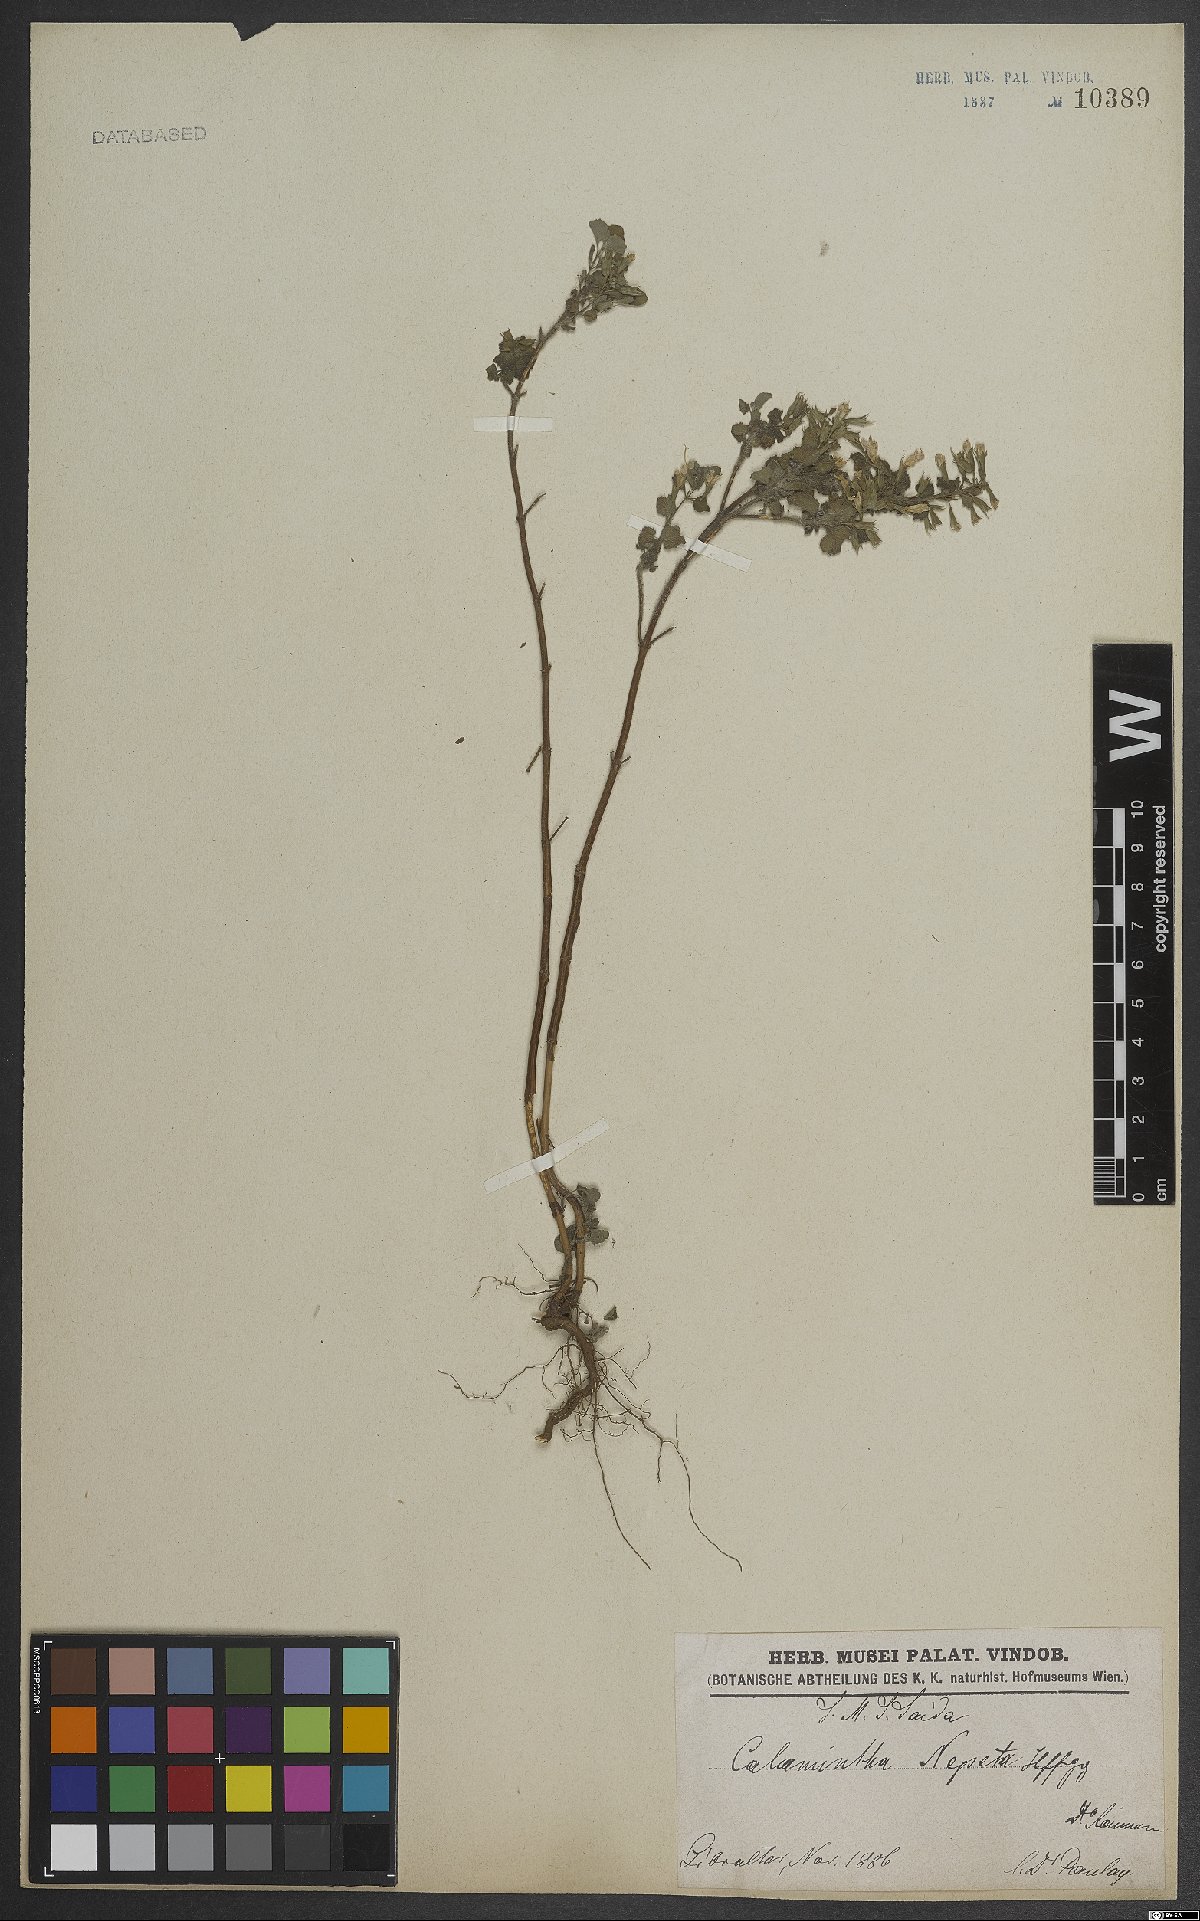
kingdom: Plantae
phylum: Tracheophyta
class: Magnoliopsida
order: Lamiales
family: Lamiaceae
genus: Clinopodium
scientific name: Clinopodium heterotrichum
